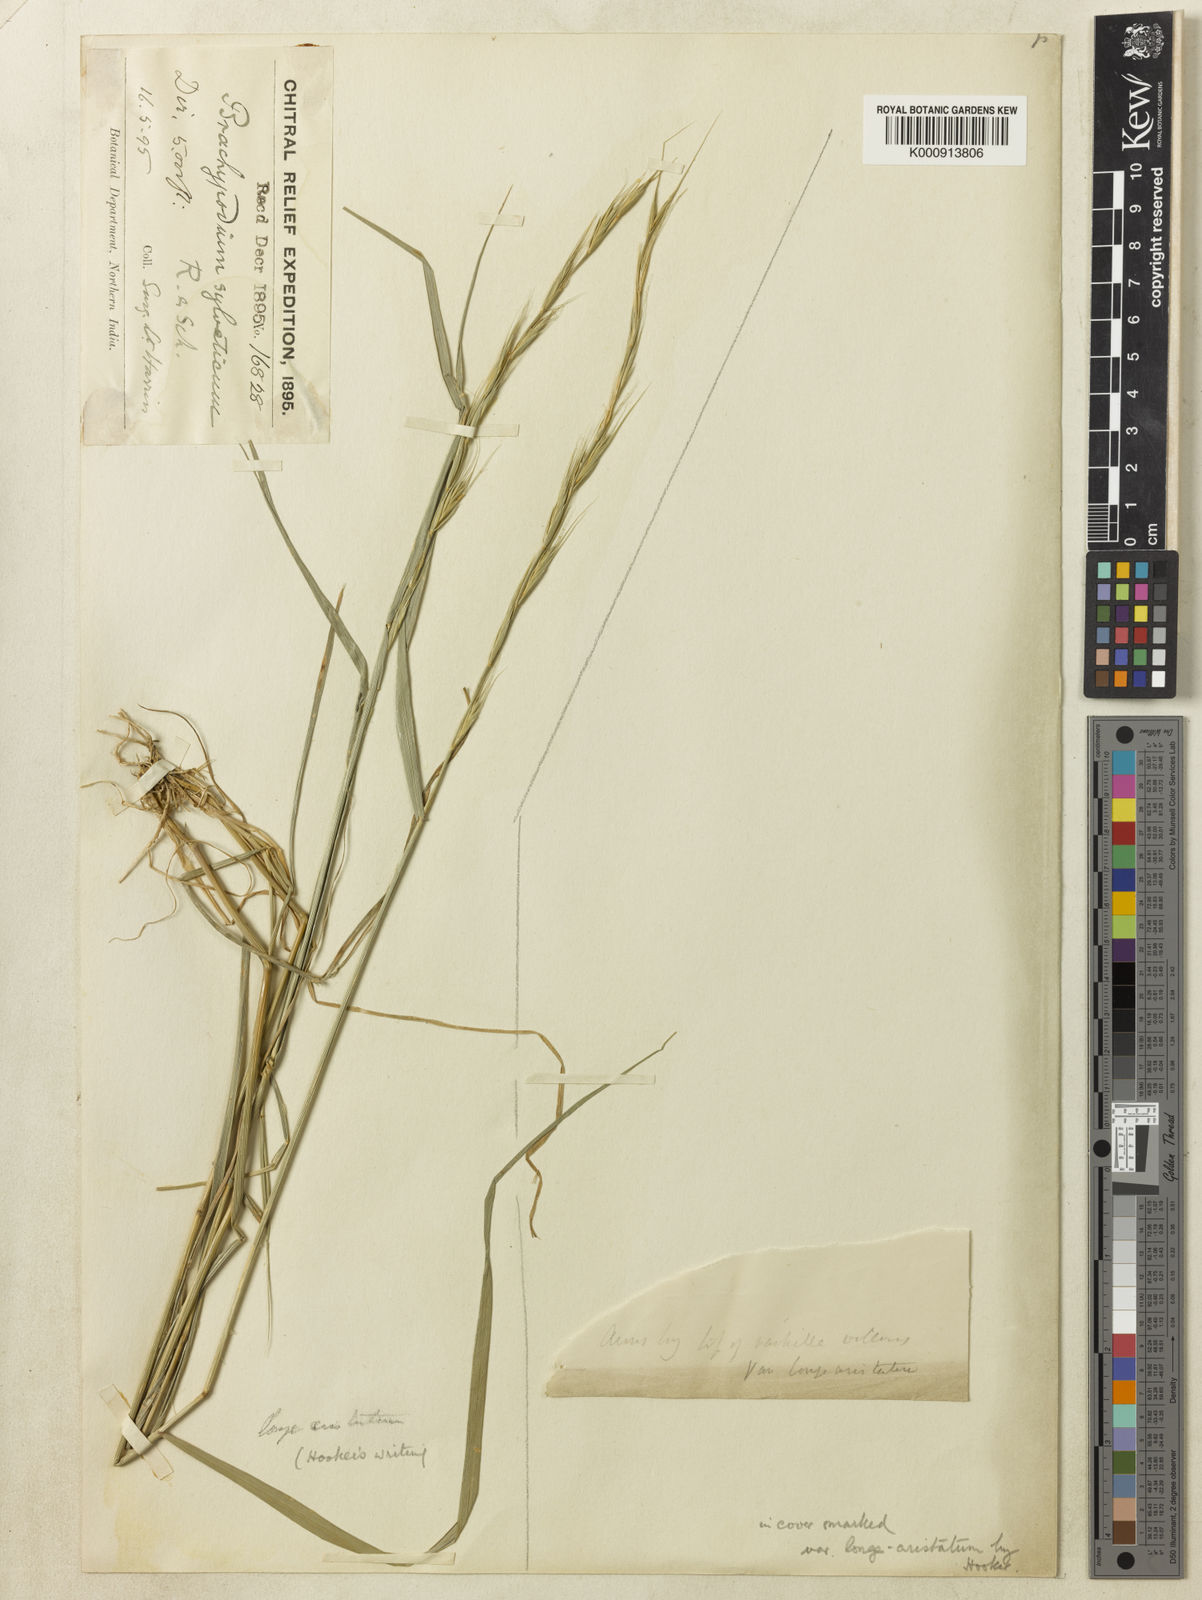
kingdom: Plantae
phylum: Tracheophyta
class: Liliopsida
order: Poales
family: Poaceae
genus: Brachypodium
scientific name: Brachypodium
